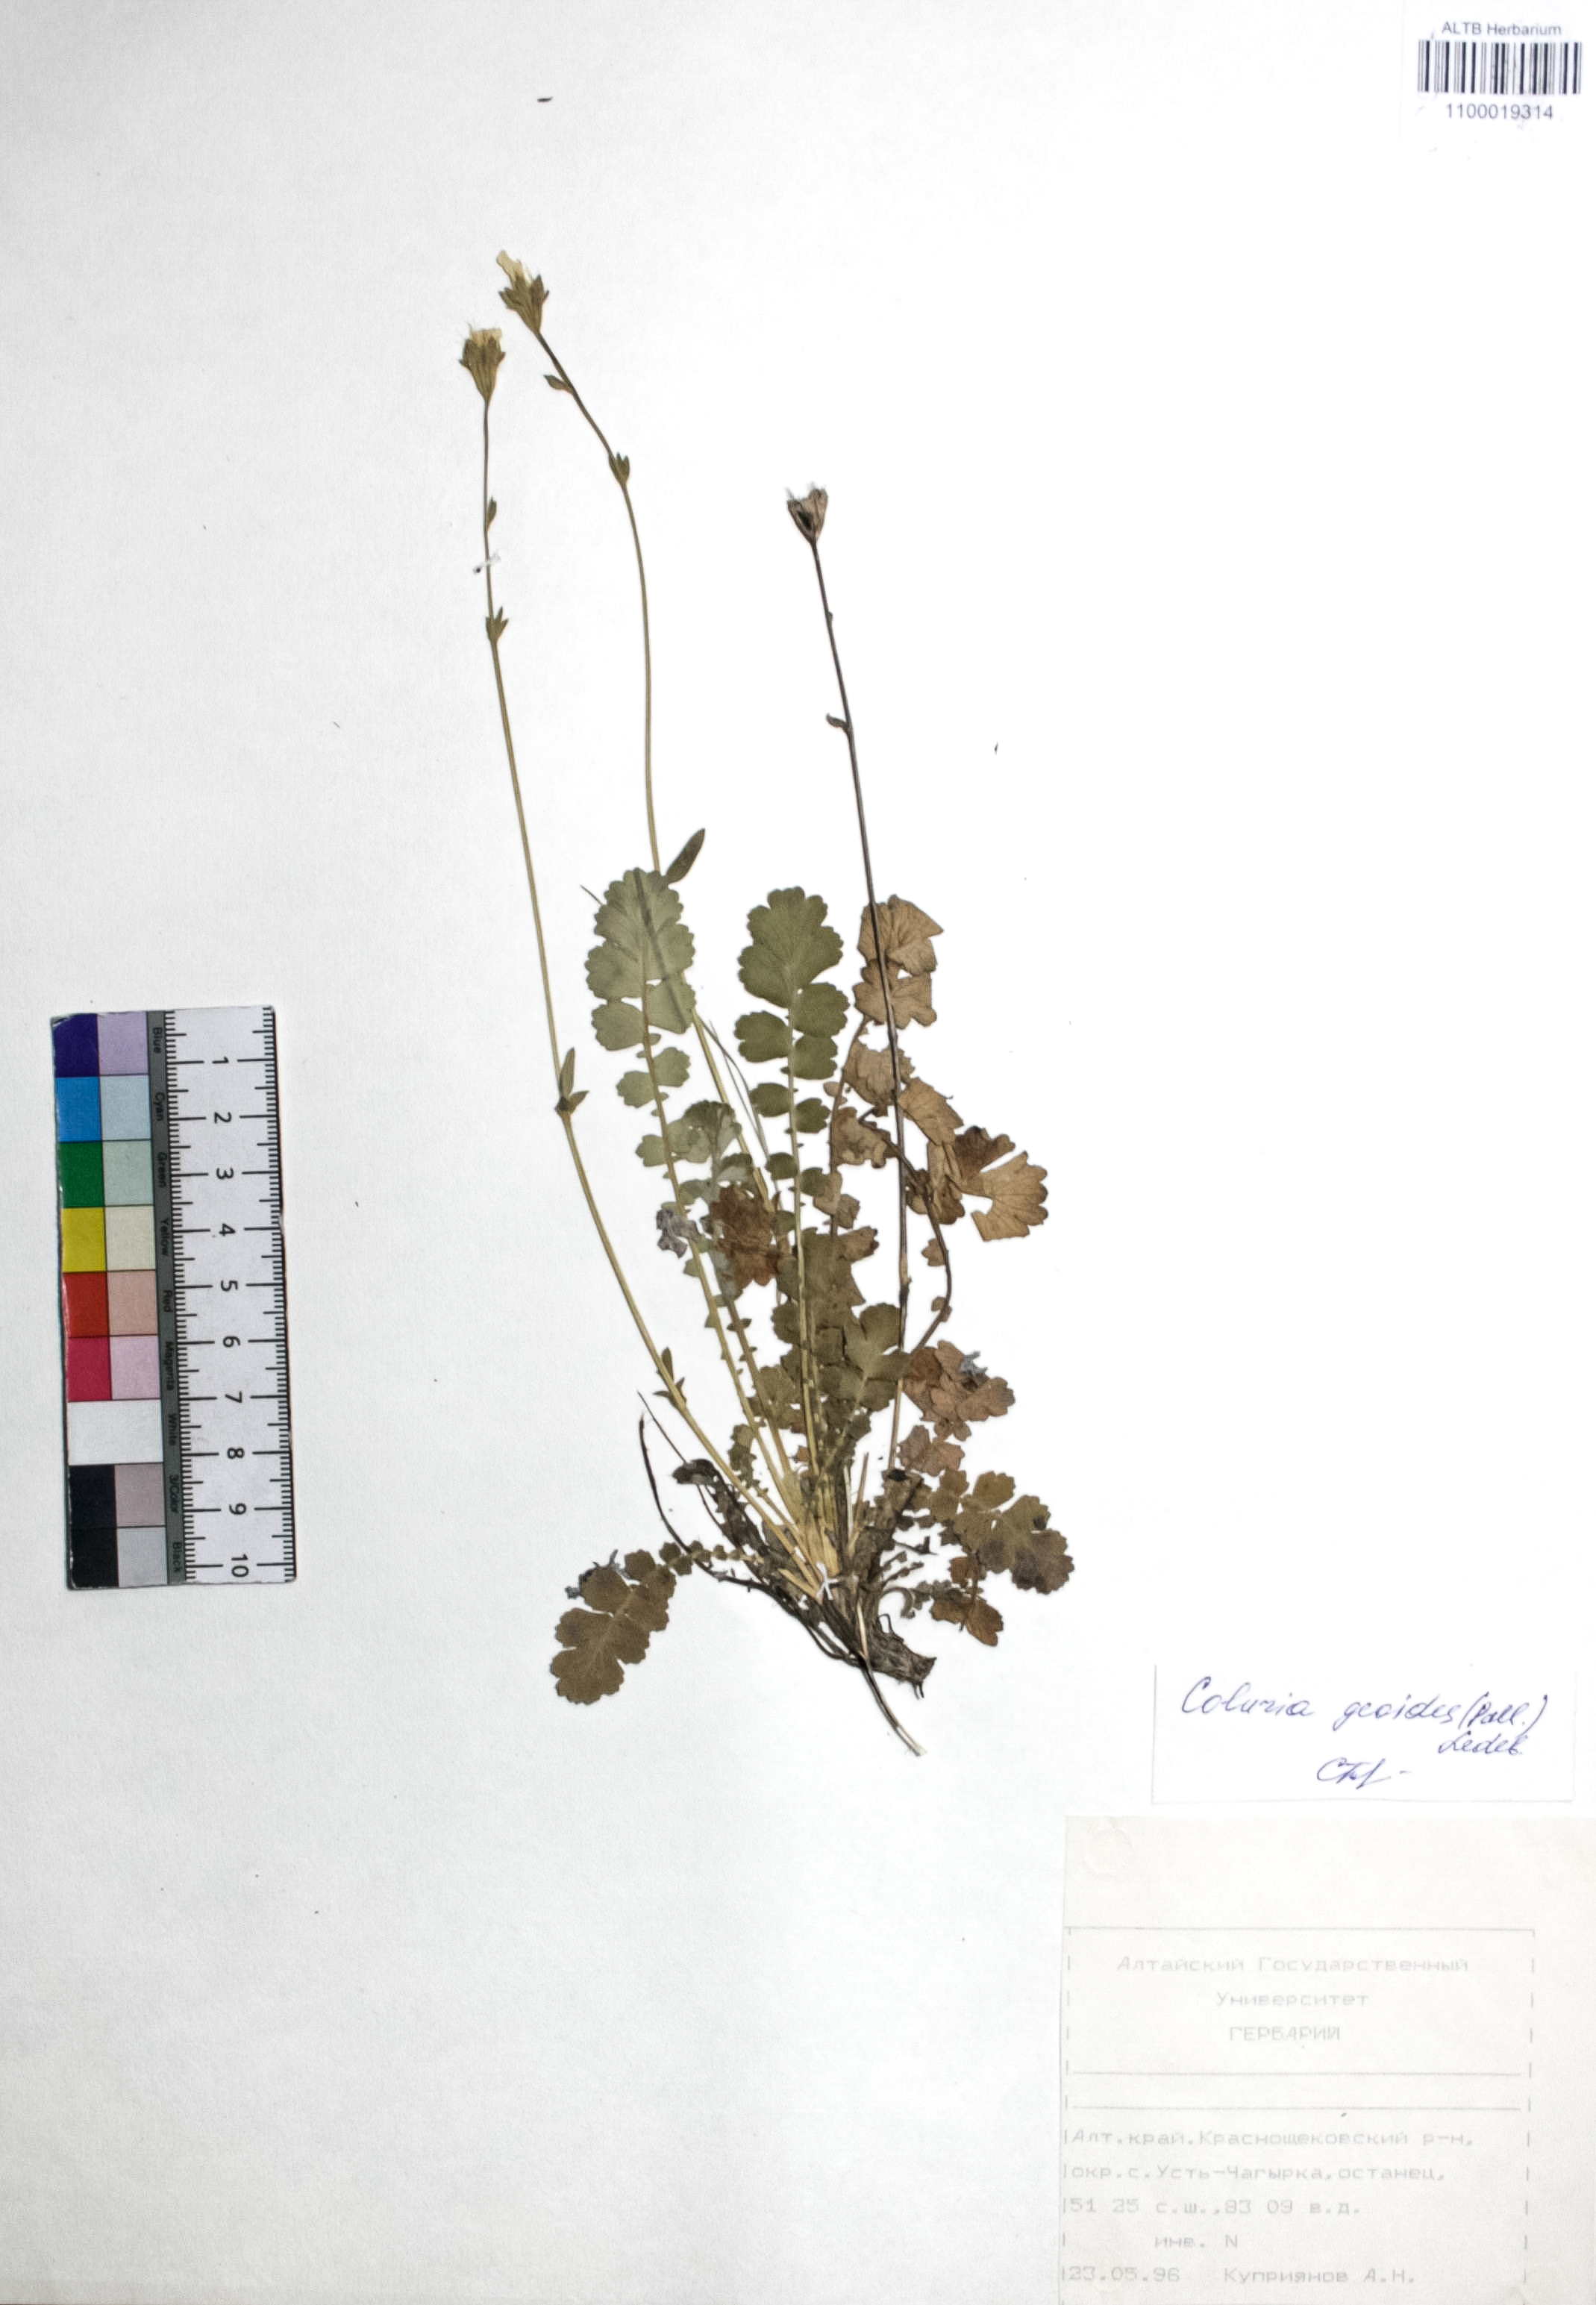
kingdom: Plantae
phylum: Tracheophyta
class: Magnoliopsida
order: Rosales
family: Rosaceae
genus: Geum
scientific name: Geum geoides
